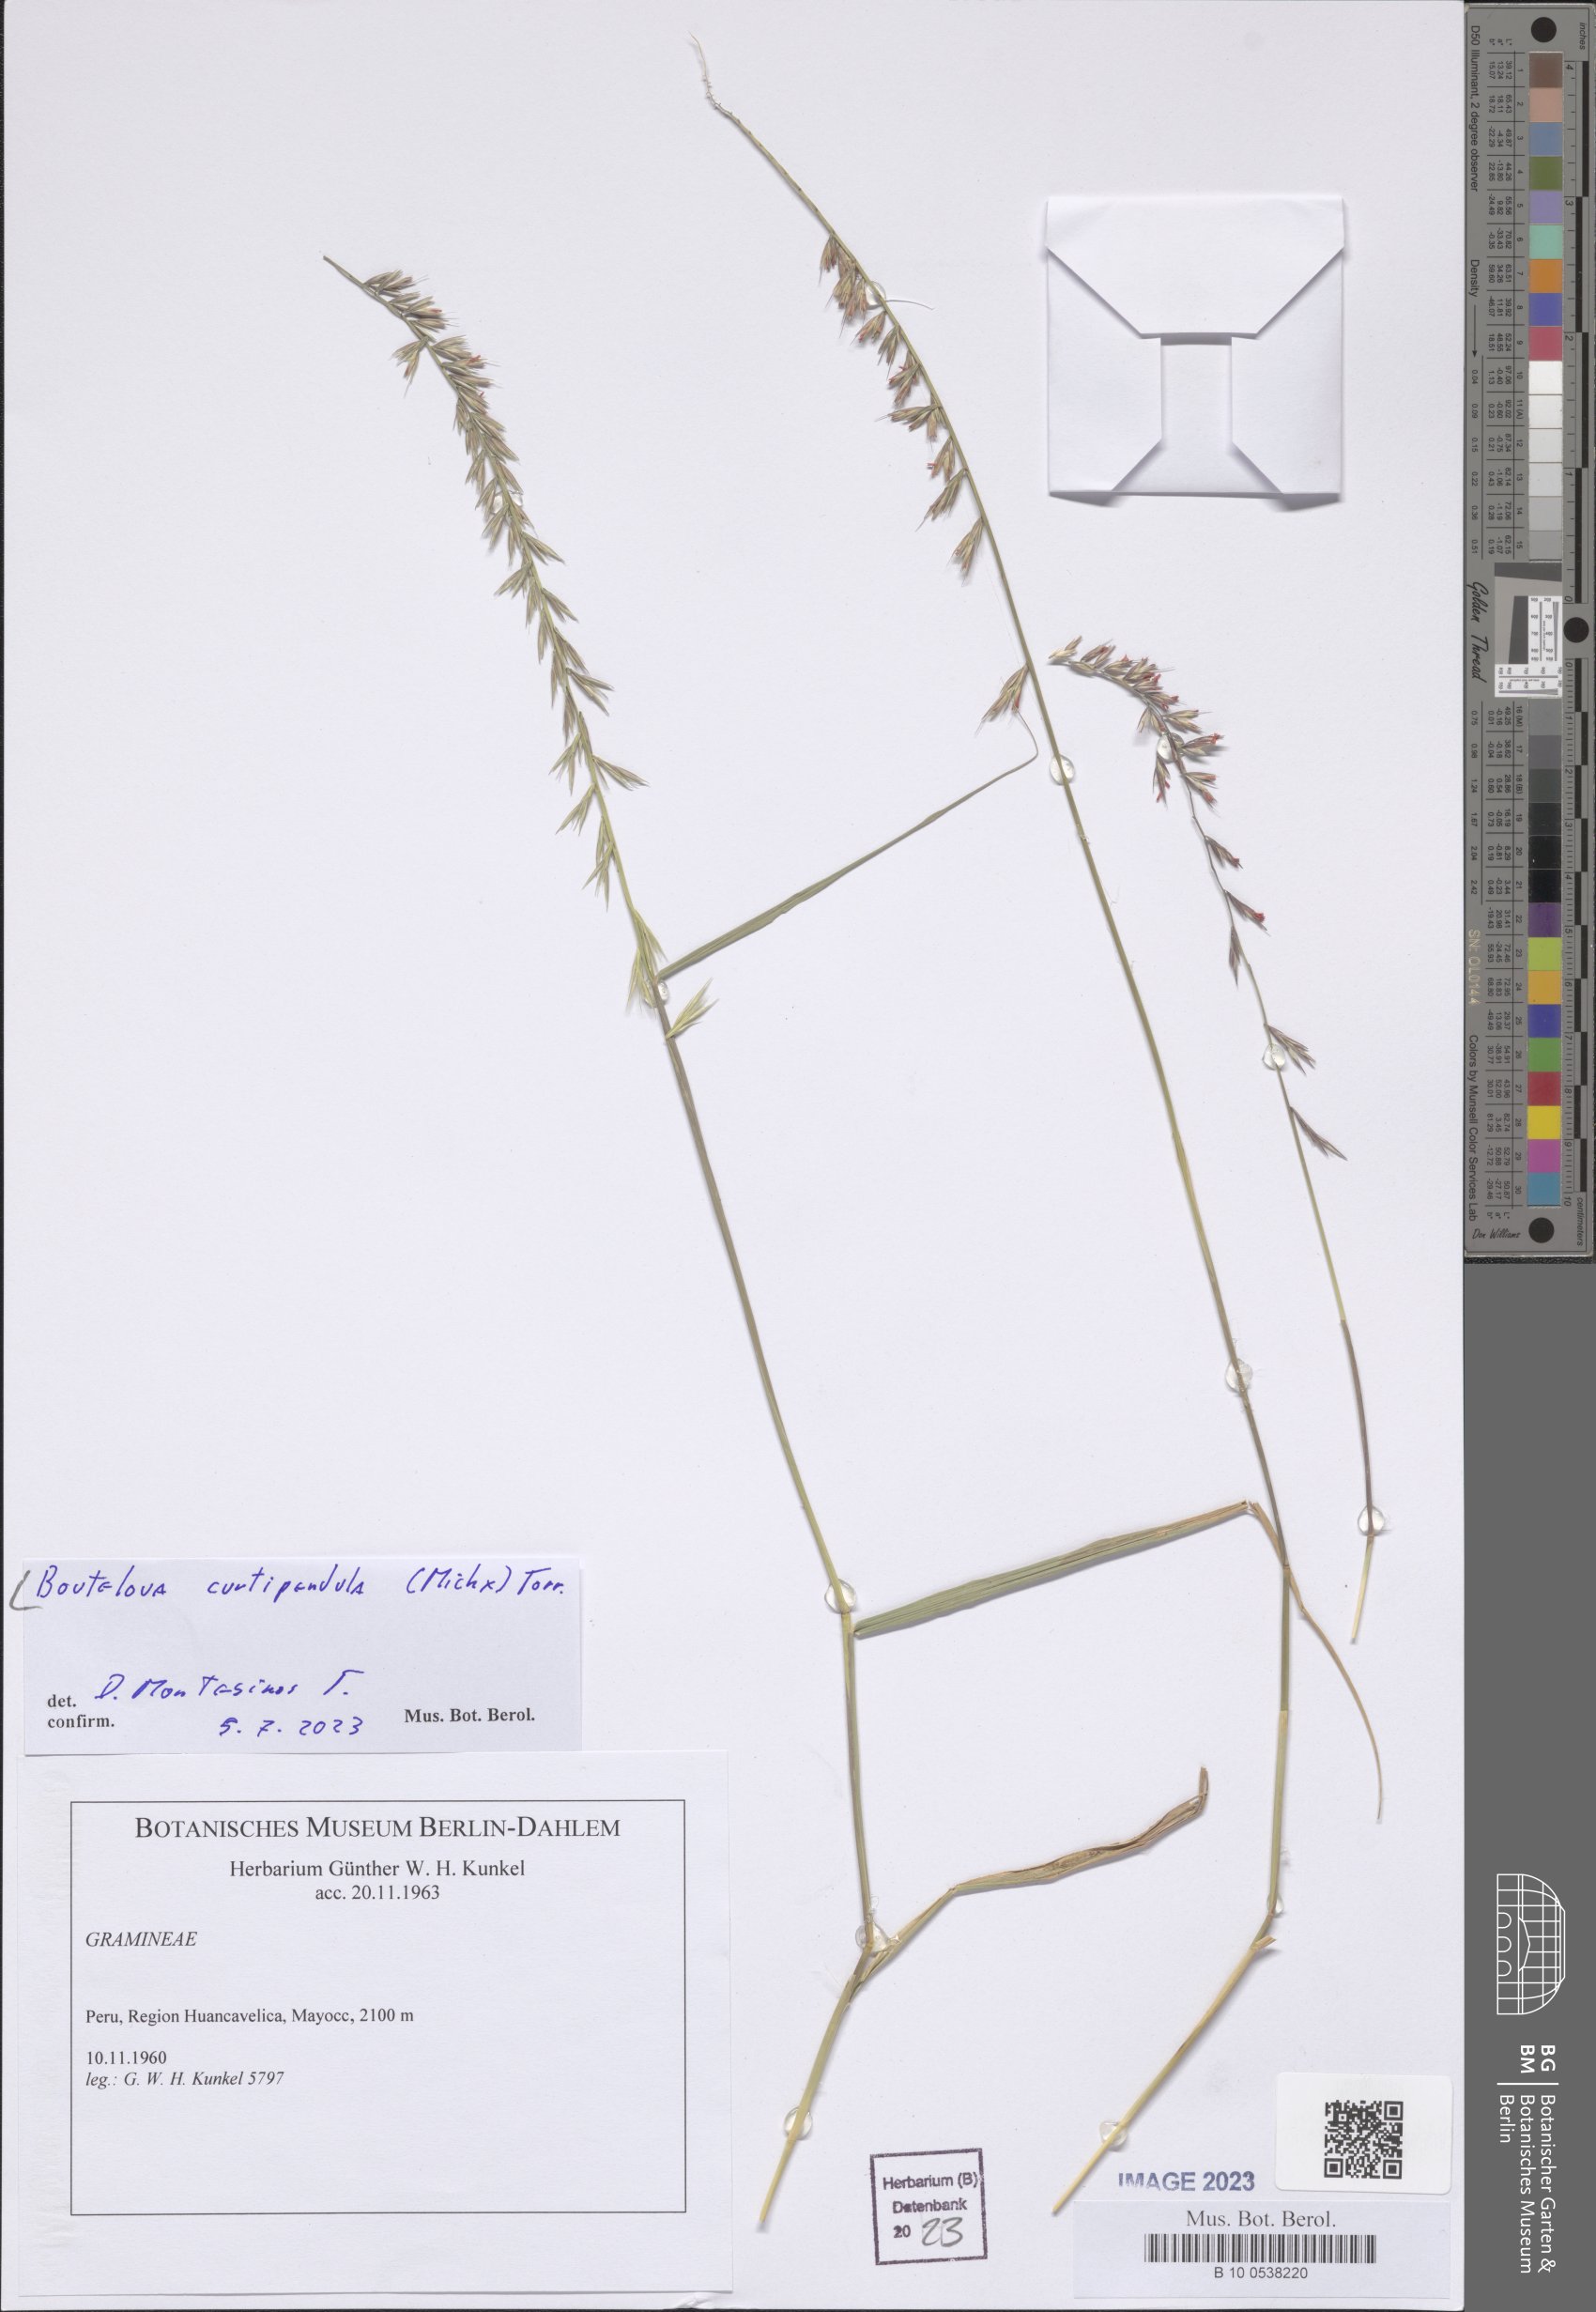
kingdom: Plantae
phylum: Tracheophyta
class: Liliopsida
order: Poales
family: Poaceae
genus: Bouteloua
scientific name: Bouteloua curtipendula
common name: Side-oats grama
